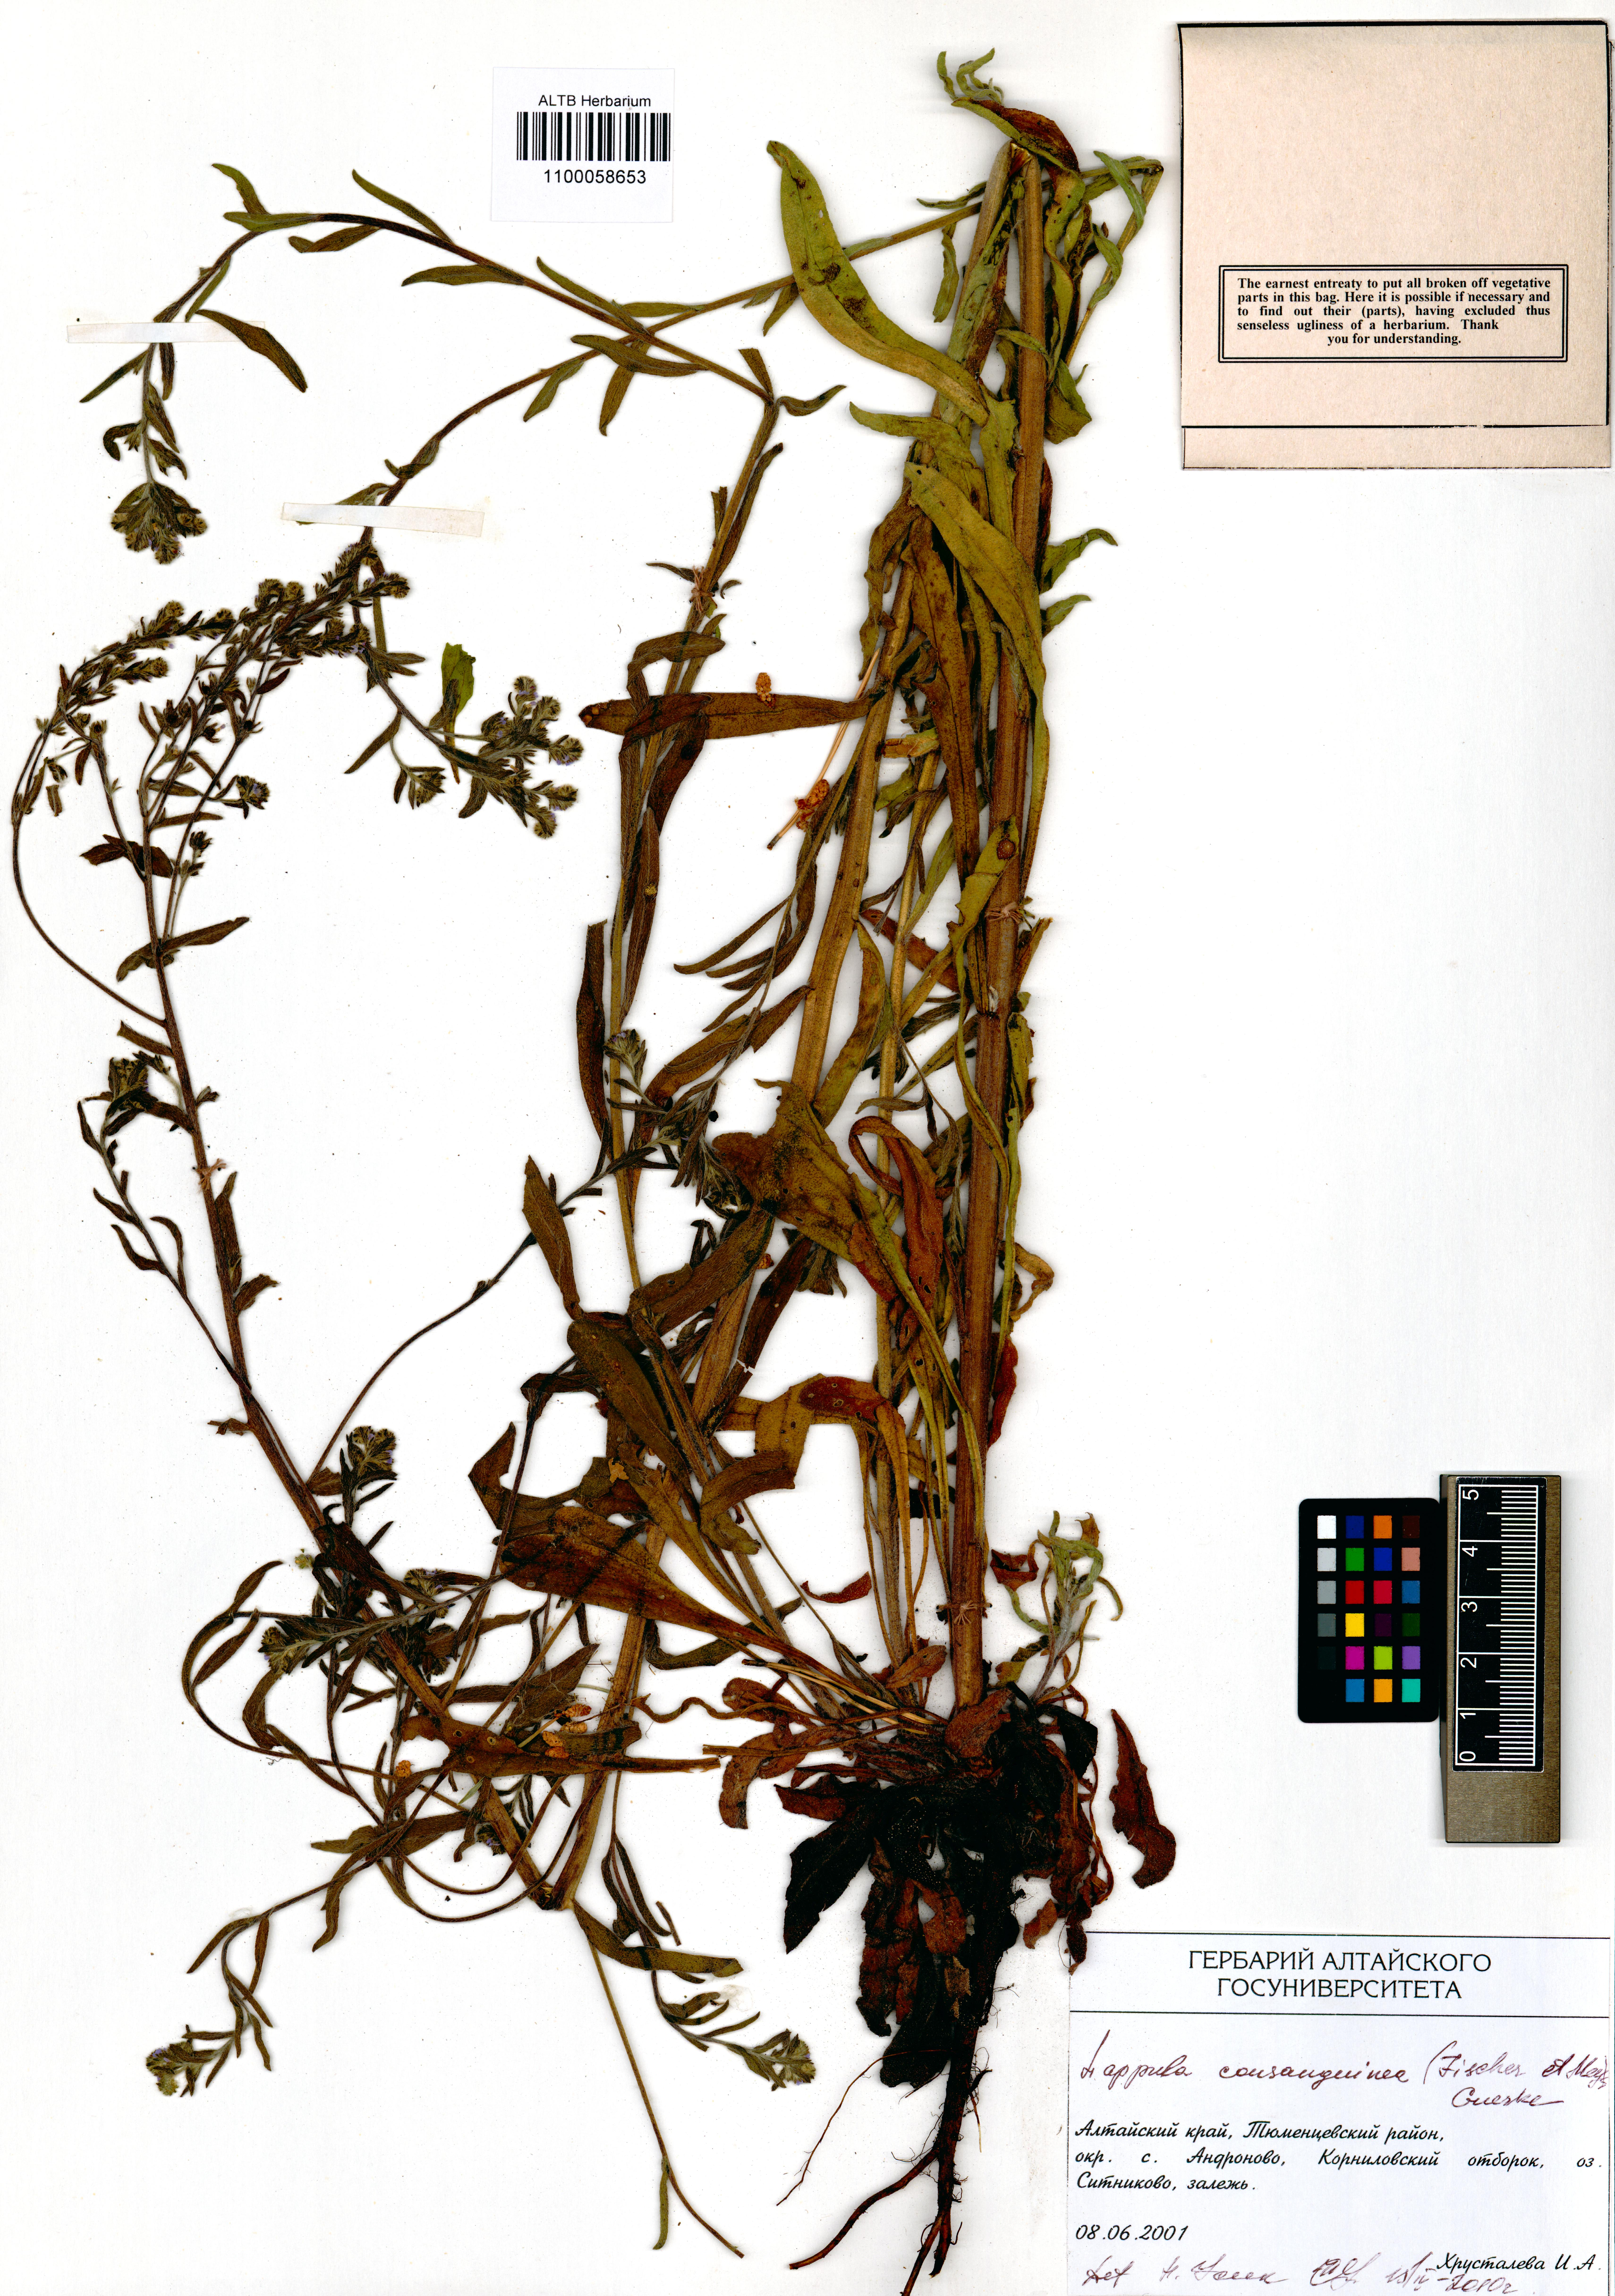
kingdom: Plantae
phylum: Tracheophyta
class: Magnoliopsida
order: Boraginales
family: Boraginaceae
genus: Lappula
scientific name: Lappula squarrosa
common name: European stickseed
